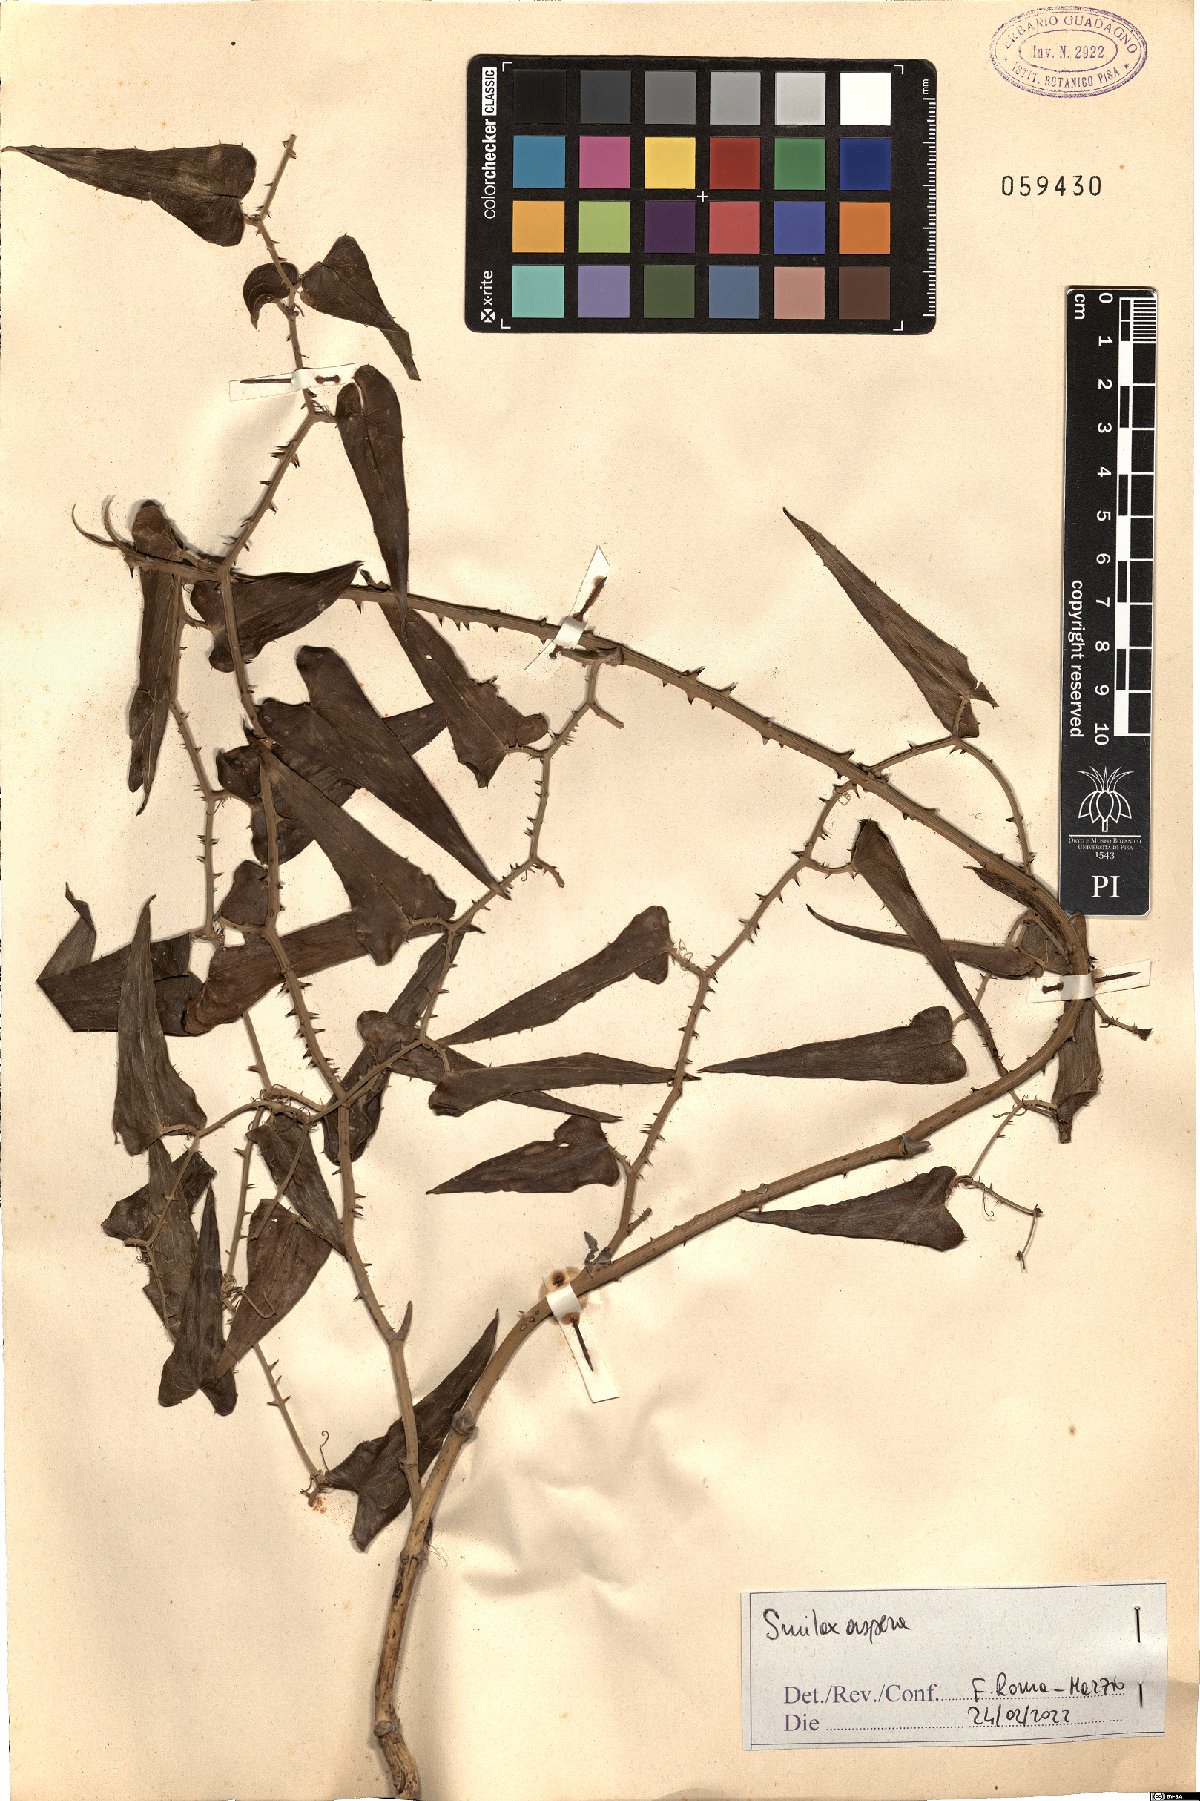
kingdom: Plantae
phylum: Tracheophyta
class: Liliopsida
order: Liliales
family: Smilacaceae
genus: Smilax
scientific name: Smilax aspera
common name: Common smilax
